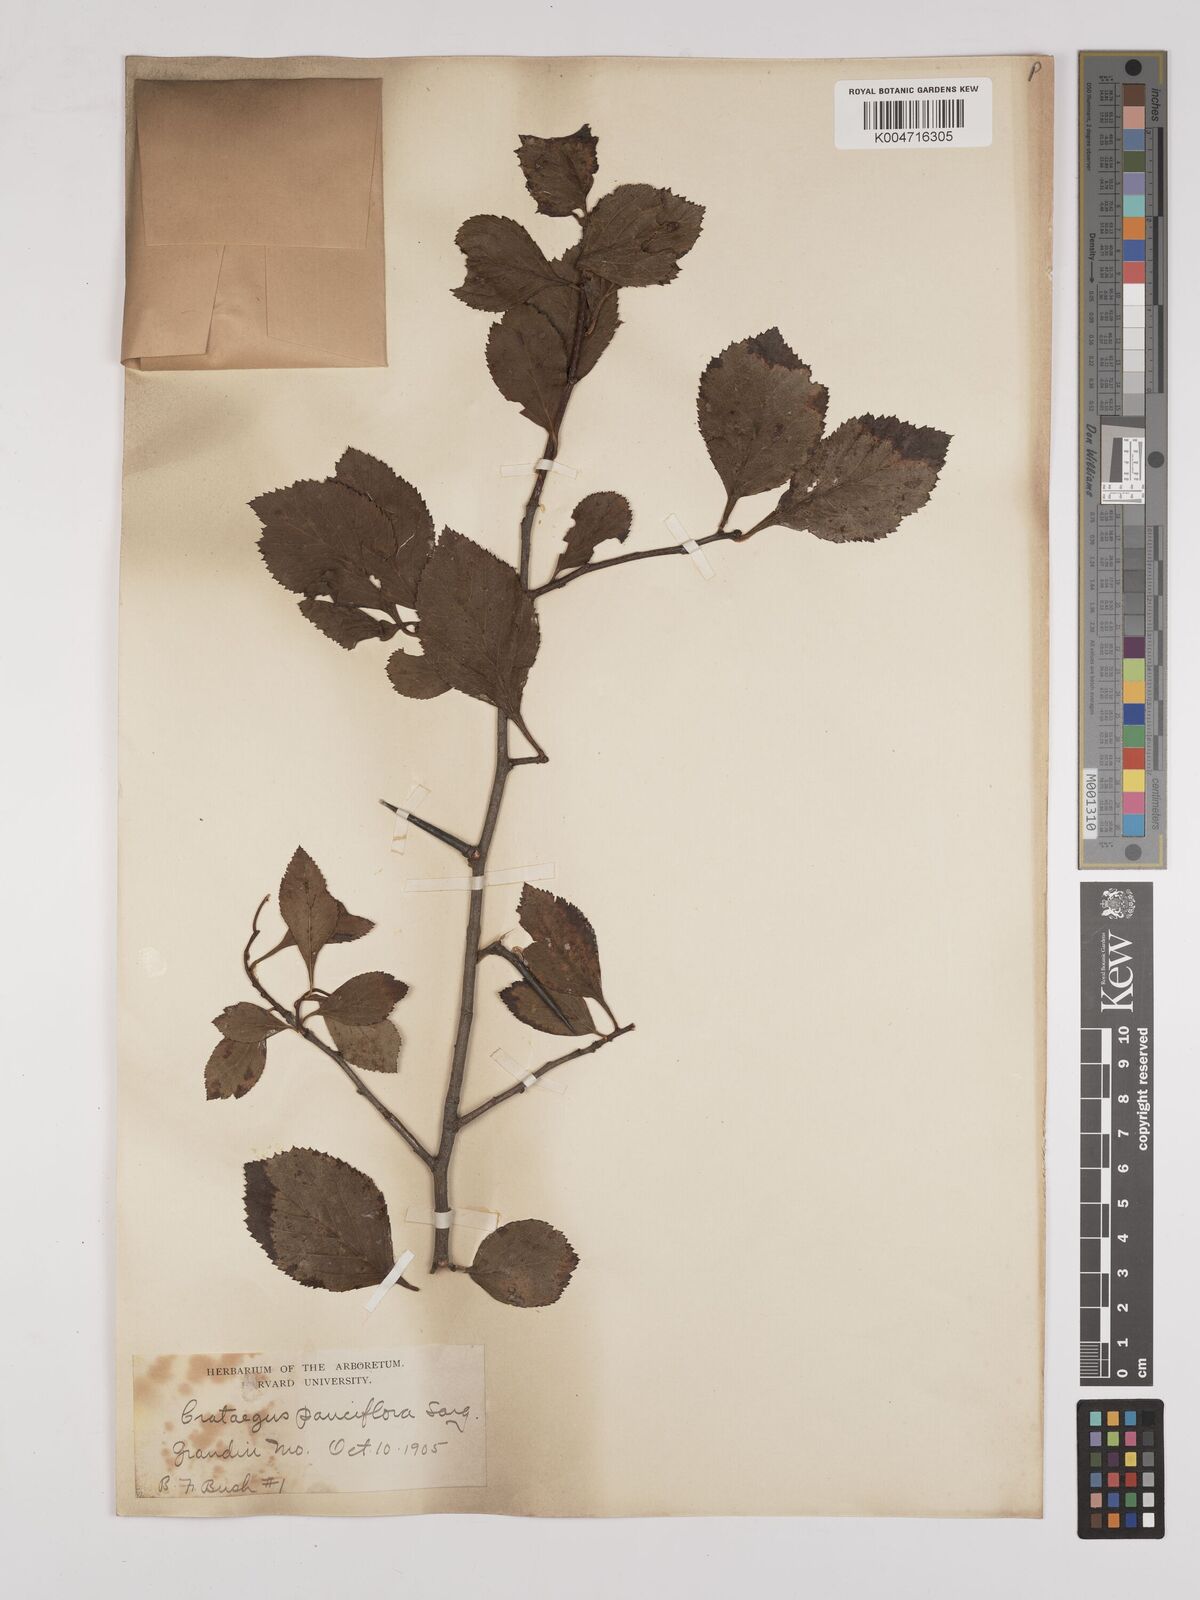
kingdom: Plantae
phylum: Tracheophyta
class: Magnoliopsida
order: Rosales
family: Rosaceae
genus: Pyracantha
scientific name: Pyracantha coccinea
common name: Firethorn
